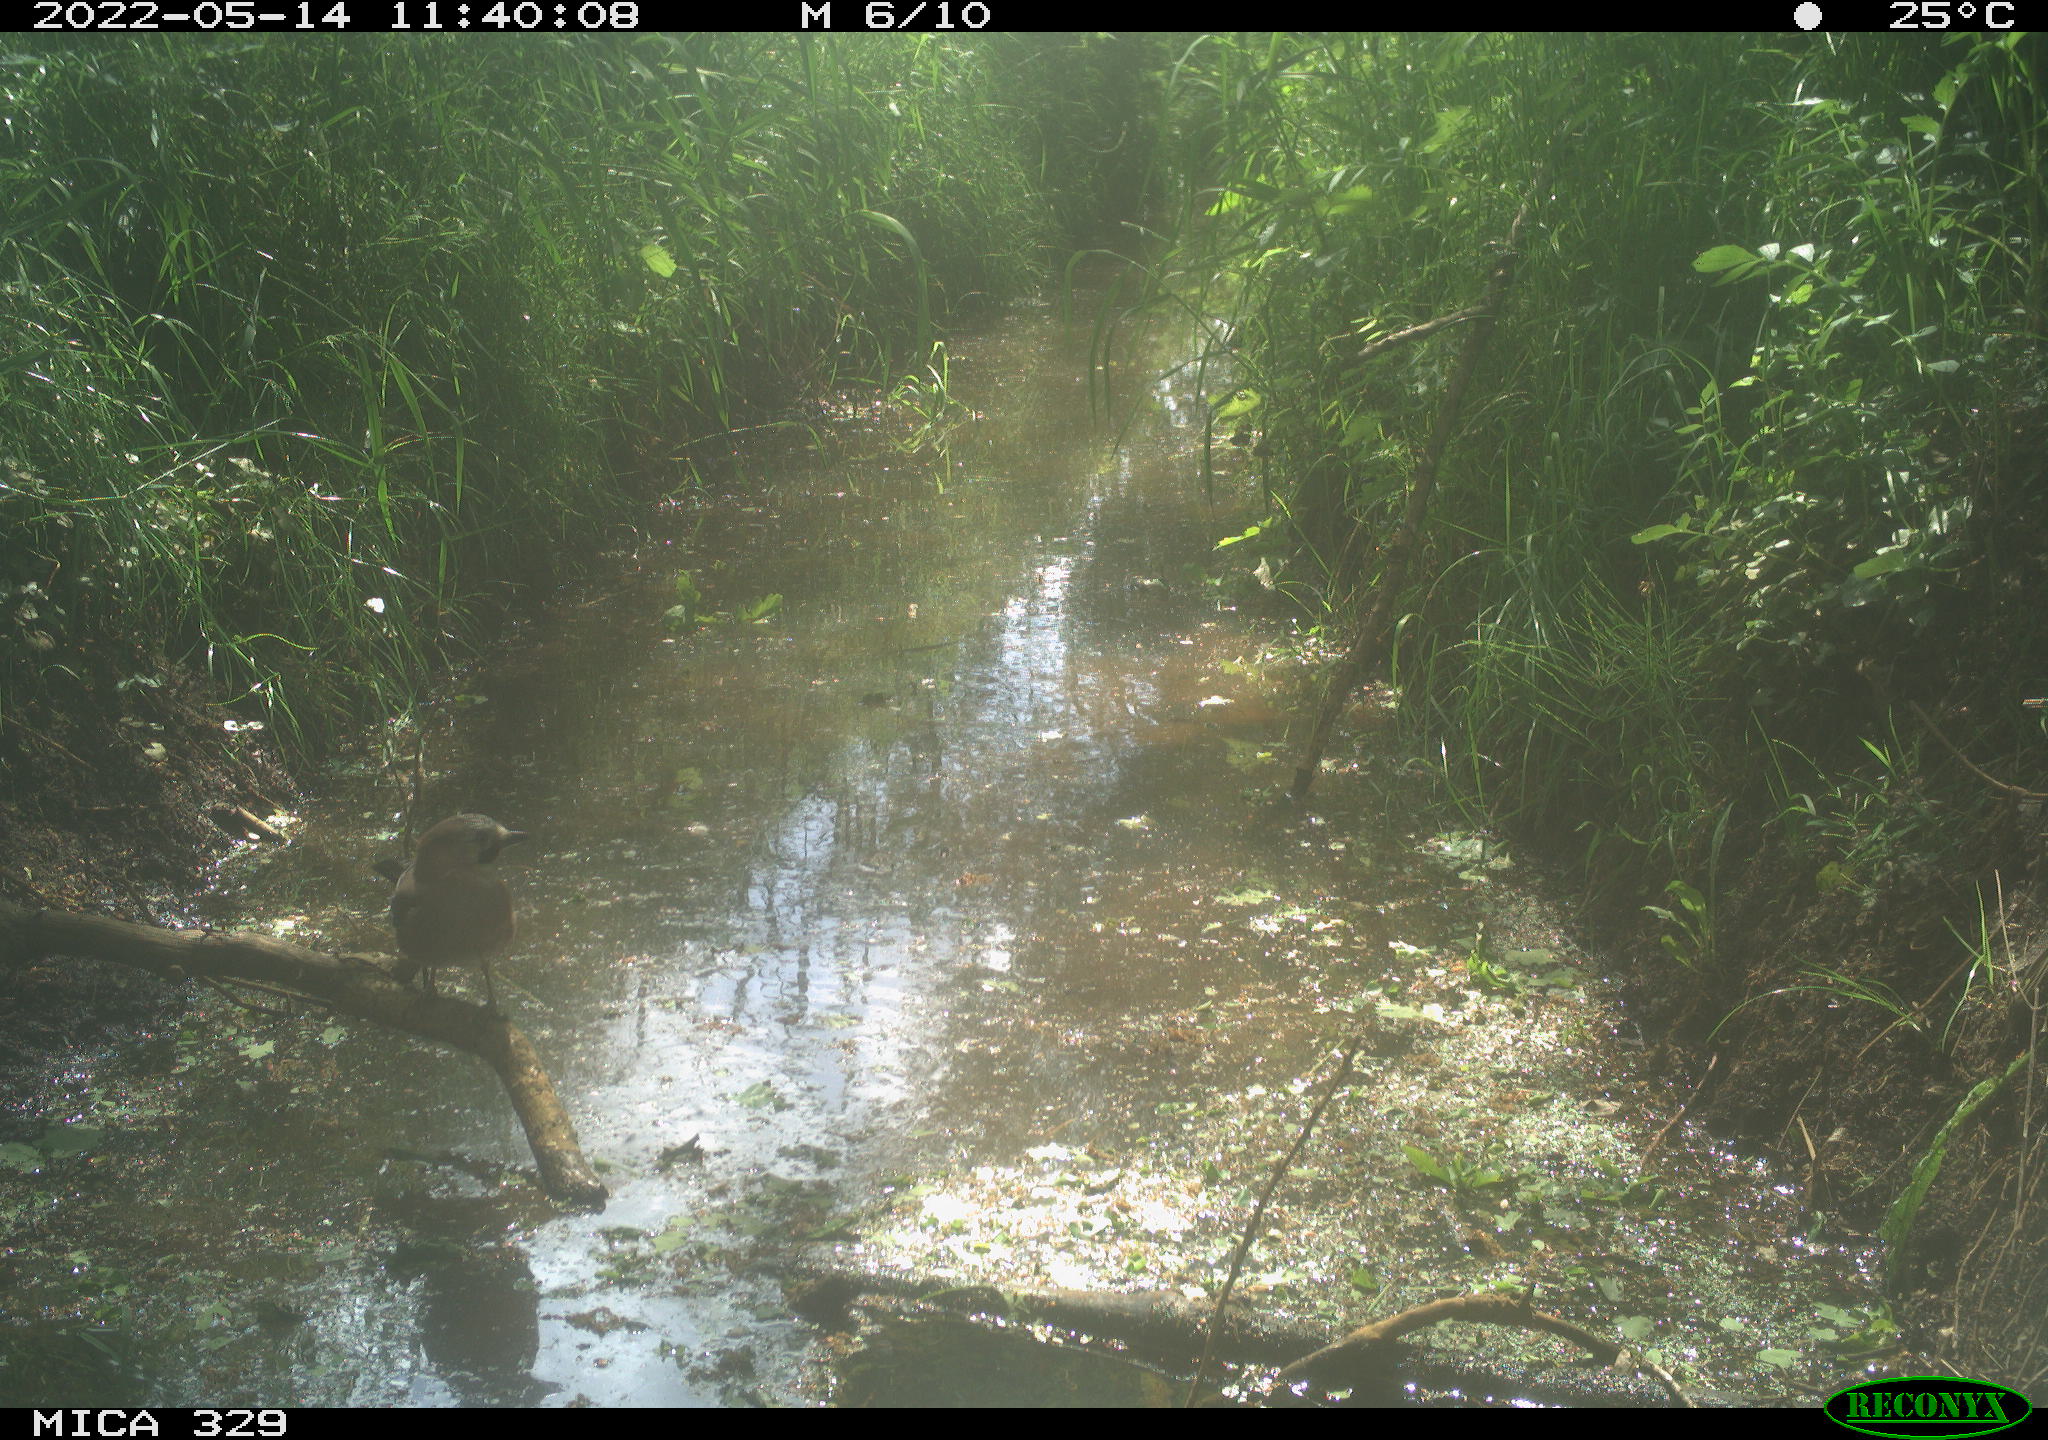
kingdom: Animalia
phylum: Chordata
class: Aves
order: Passeriformes
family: Corvidae
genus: Garrulus
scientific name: Garrulus glandarius
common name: Eurasian jay
